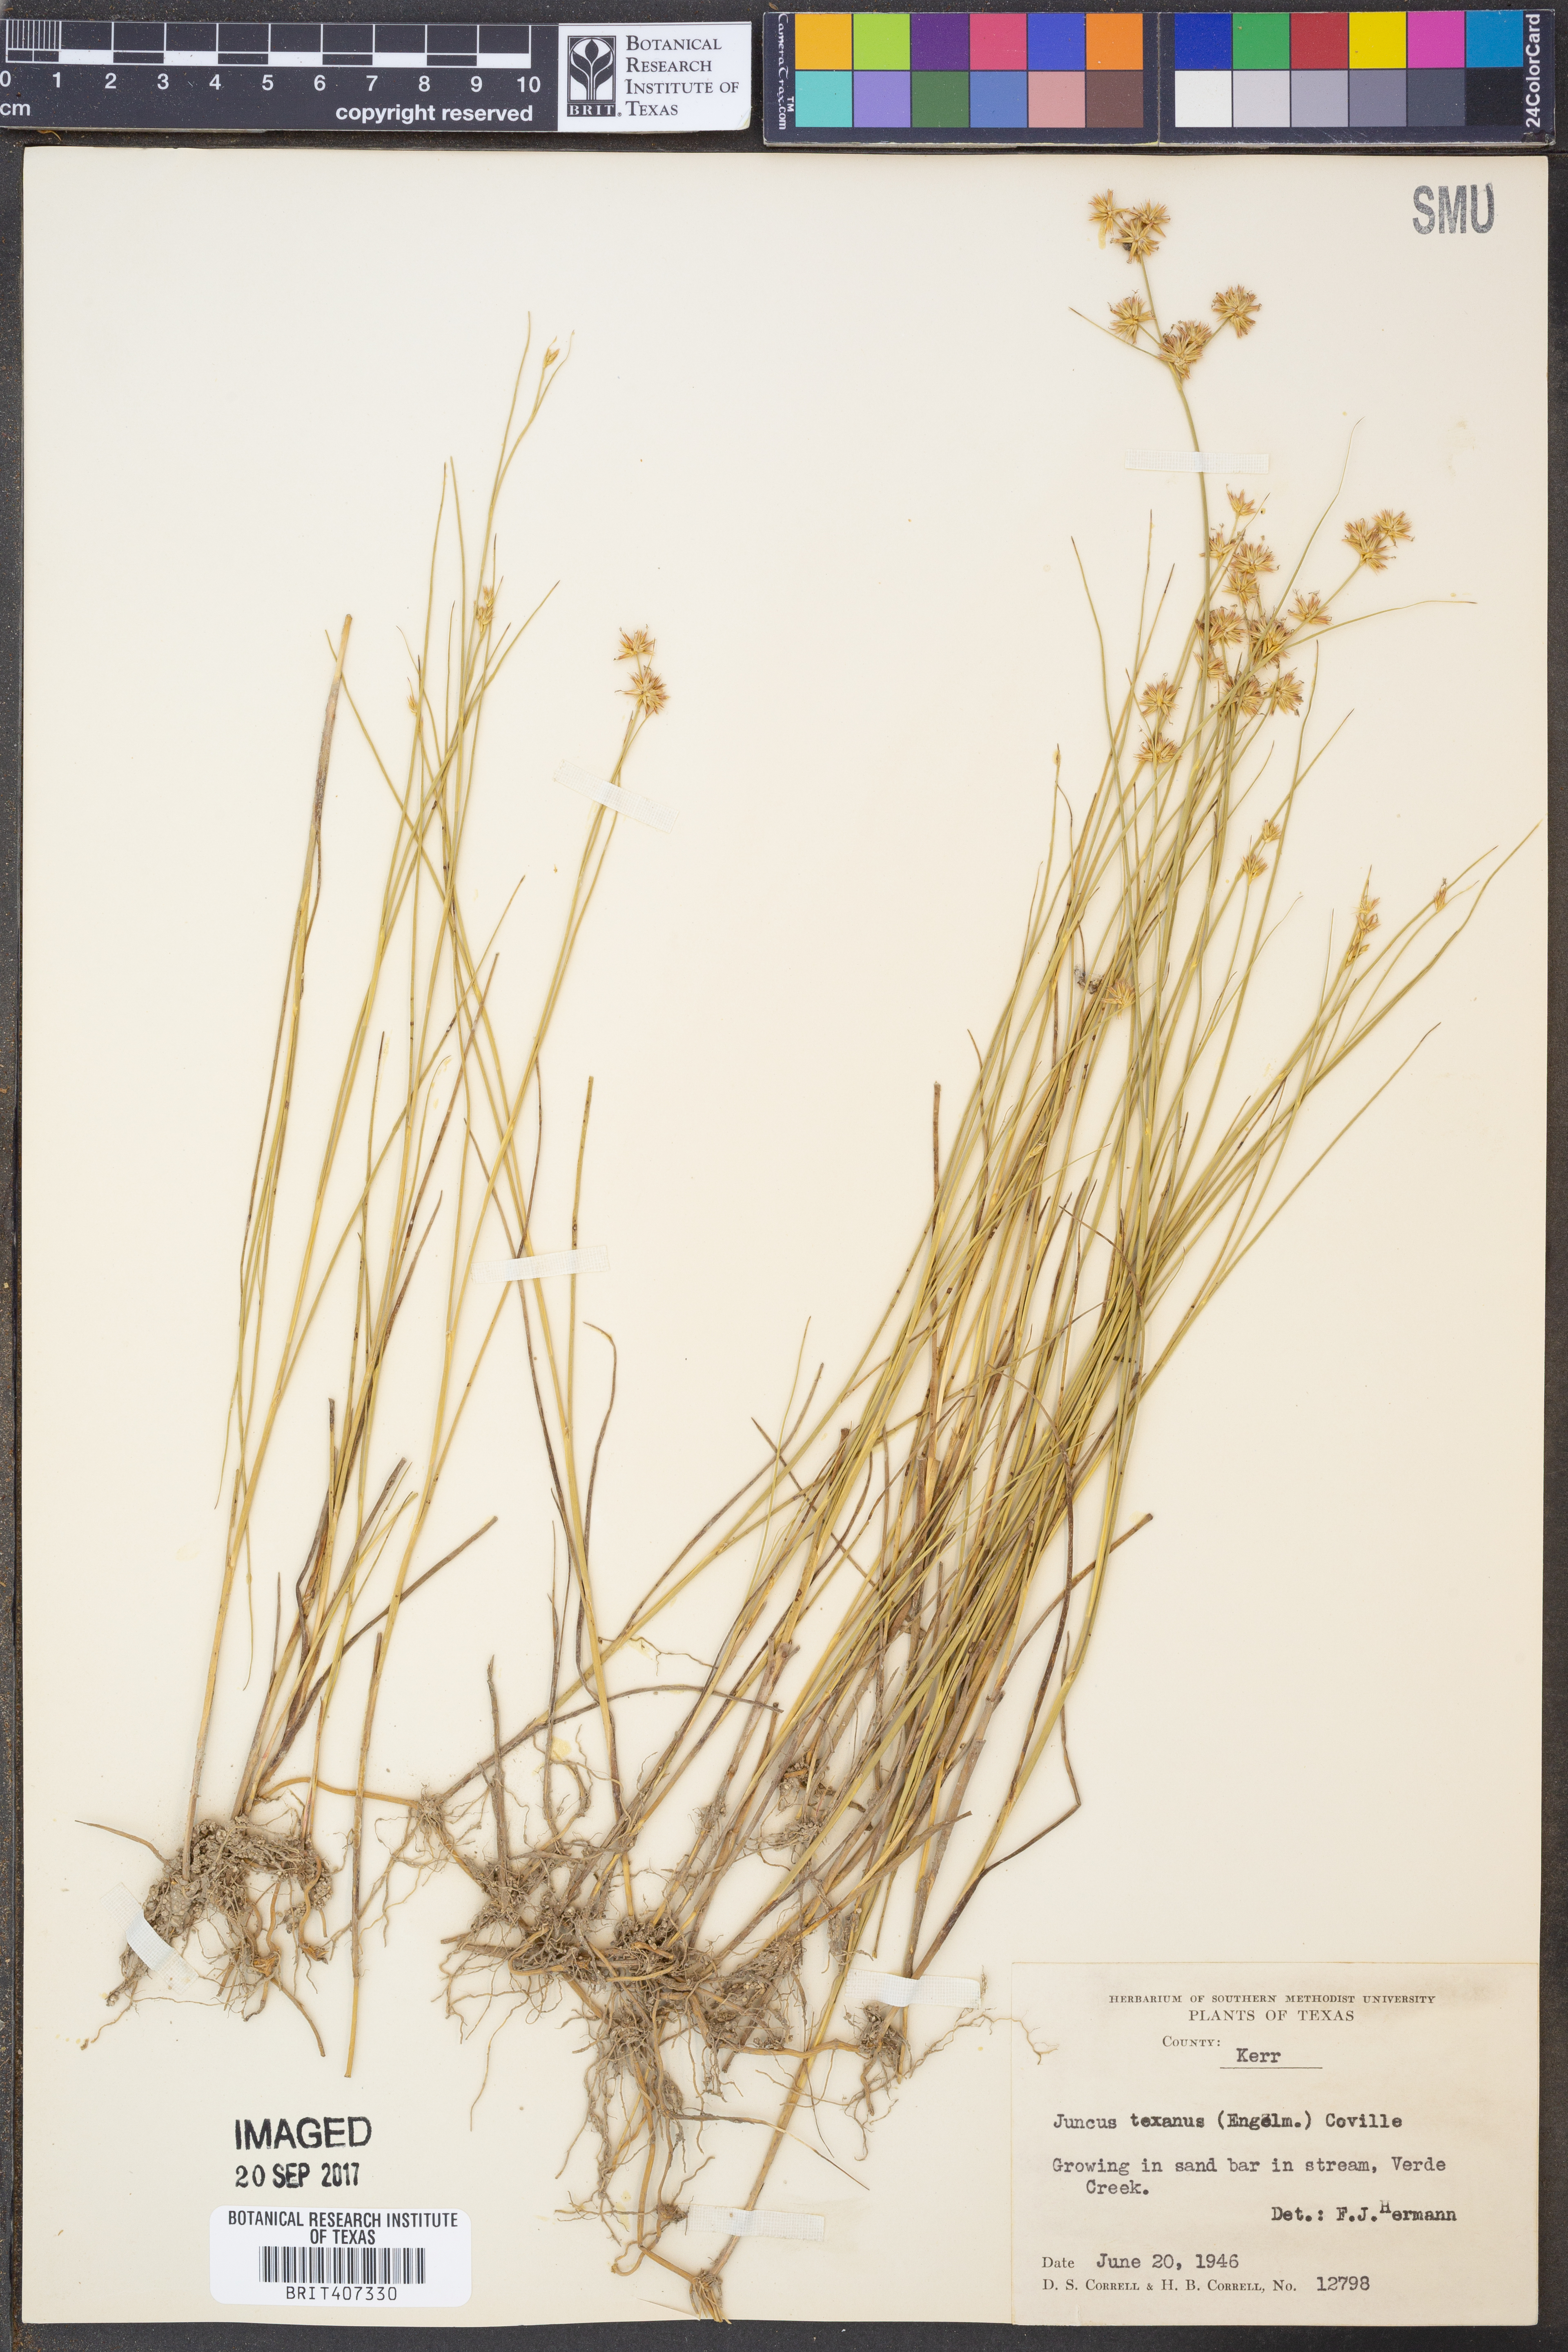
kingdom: Plantae
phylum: Tracheophyta
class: Liliopsida
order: Poales
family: Juncaceae
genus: Juncus
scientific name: Juncus texanus
